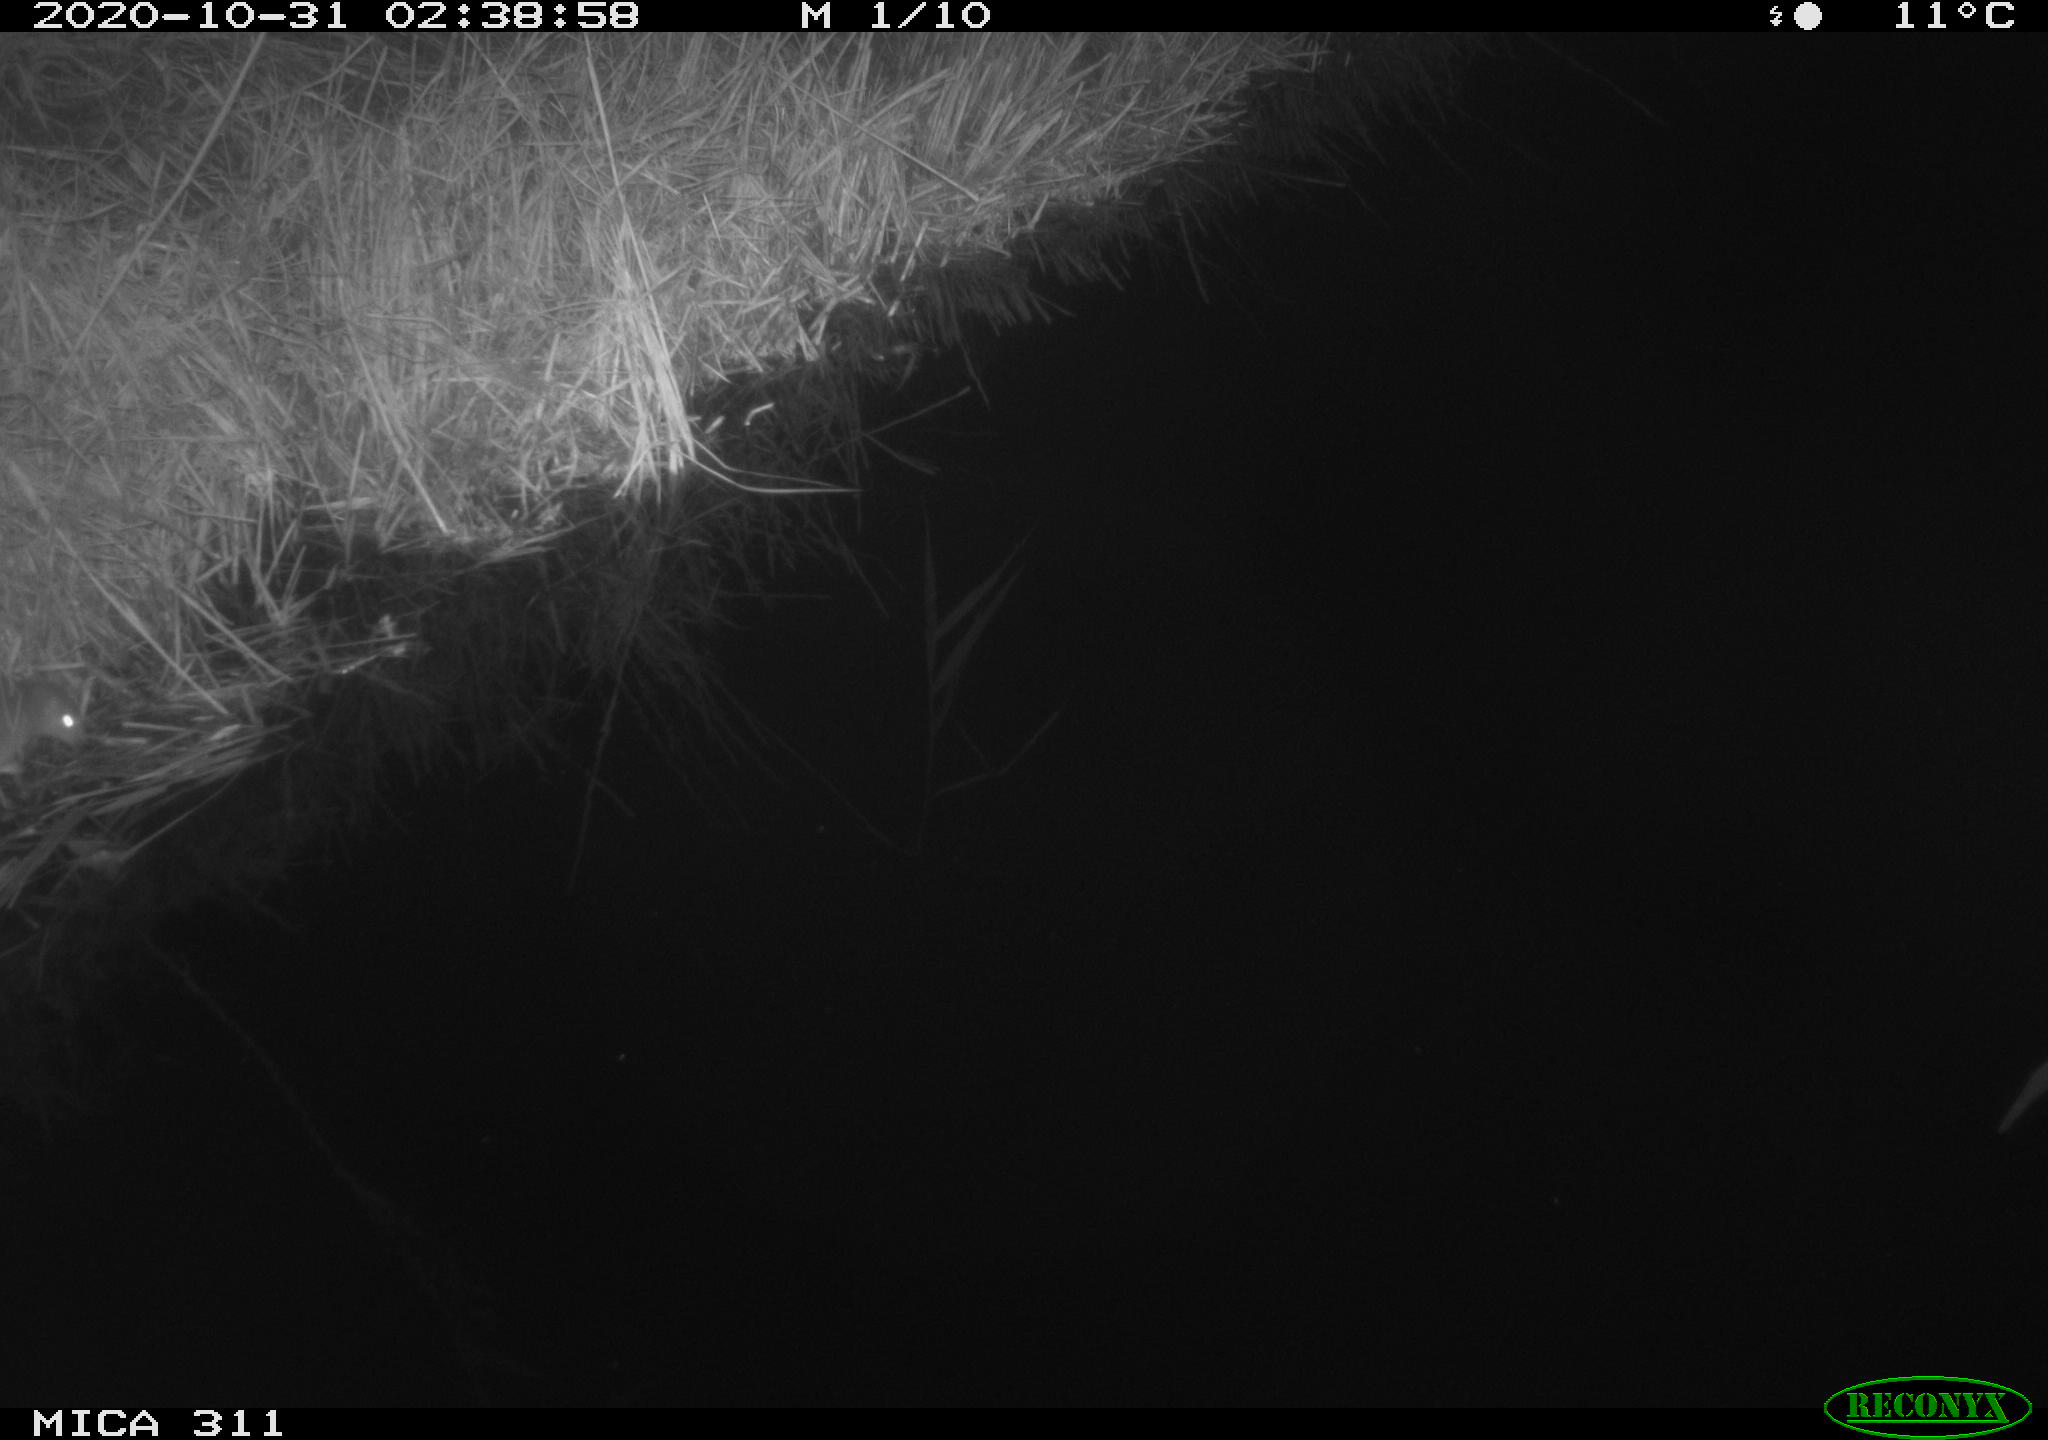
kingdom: Animalia
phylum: Chordata
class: Mammalia
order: Rodentia
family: Cricetidae
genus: Ondatra
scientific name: Ondatra zibethicus
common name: Muskrat
